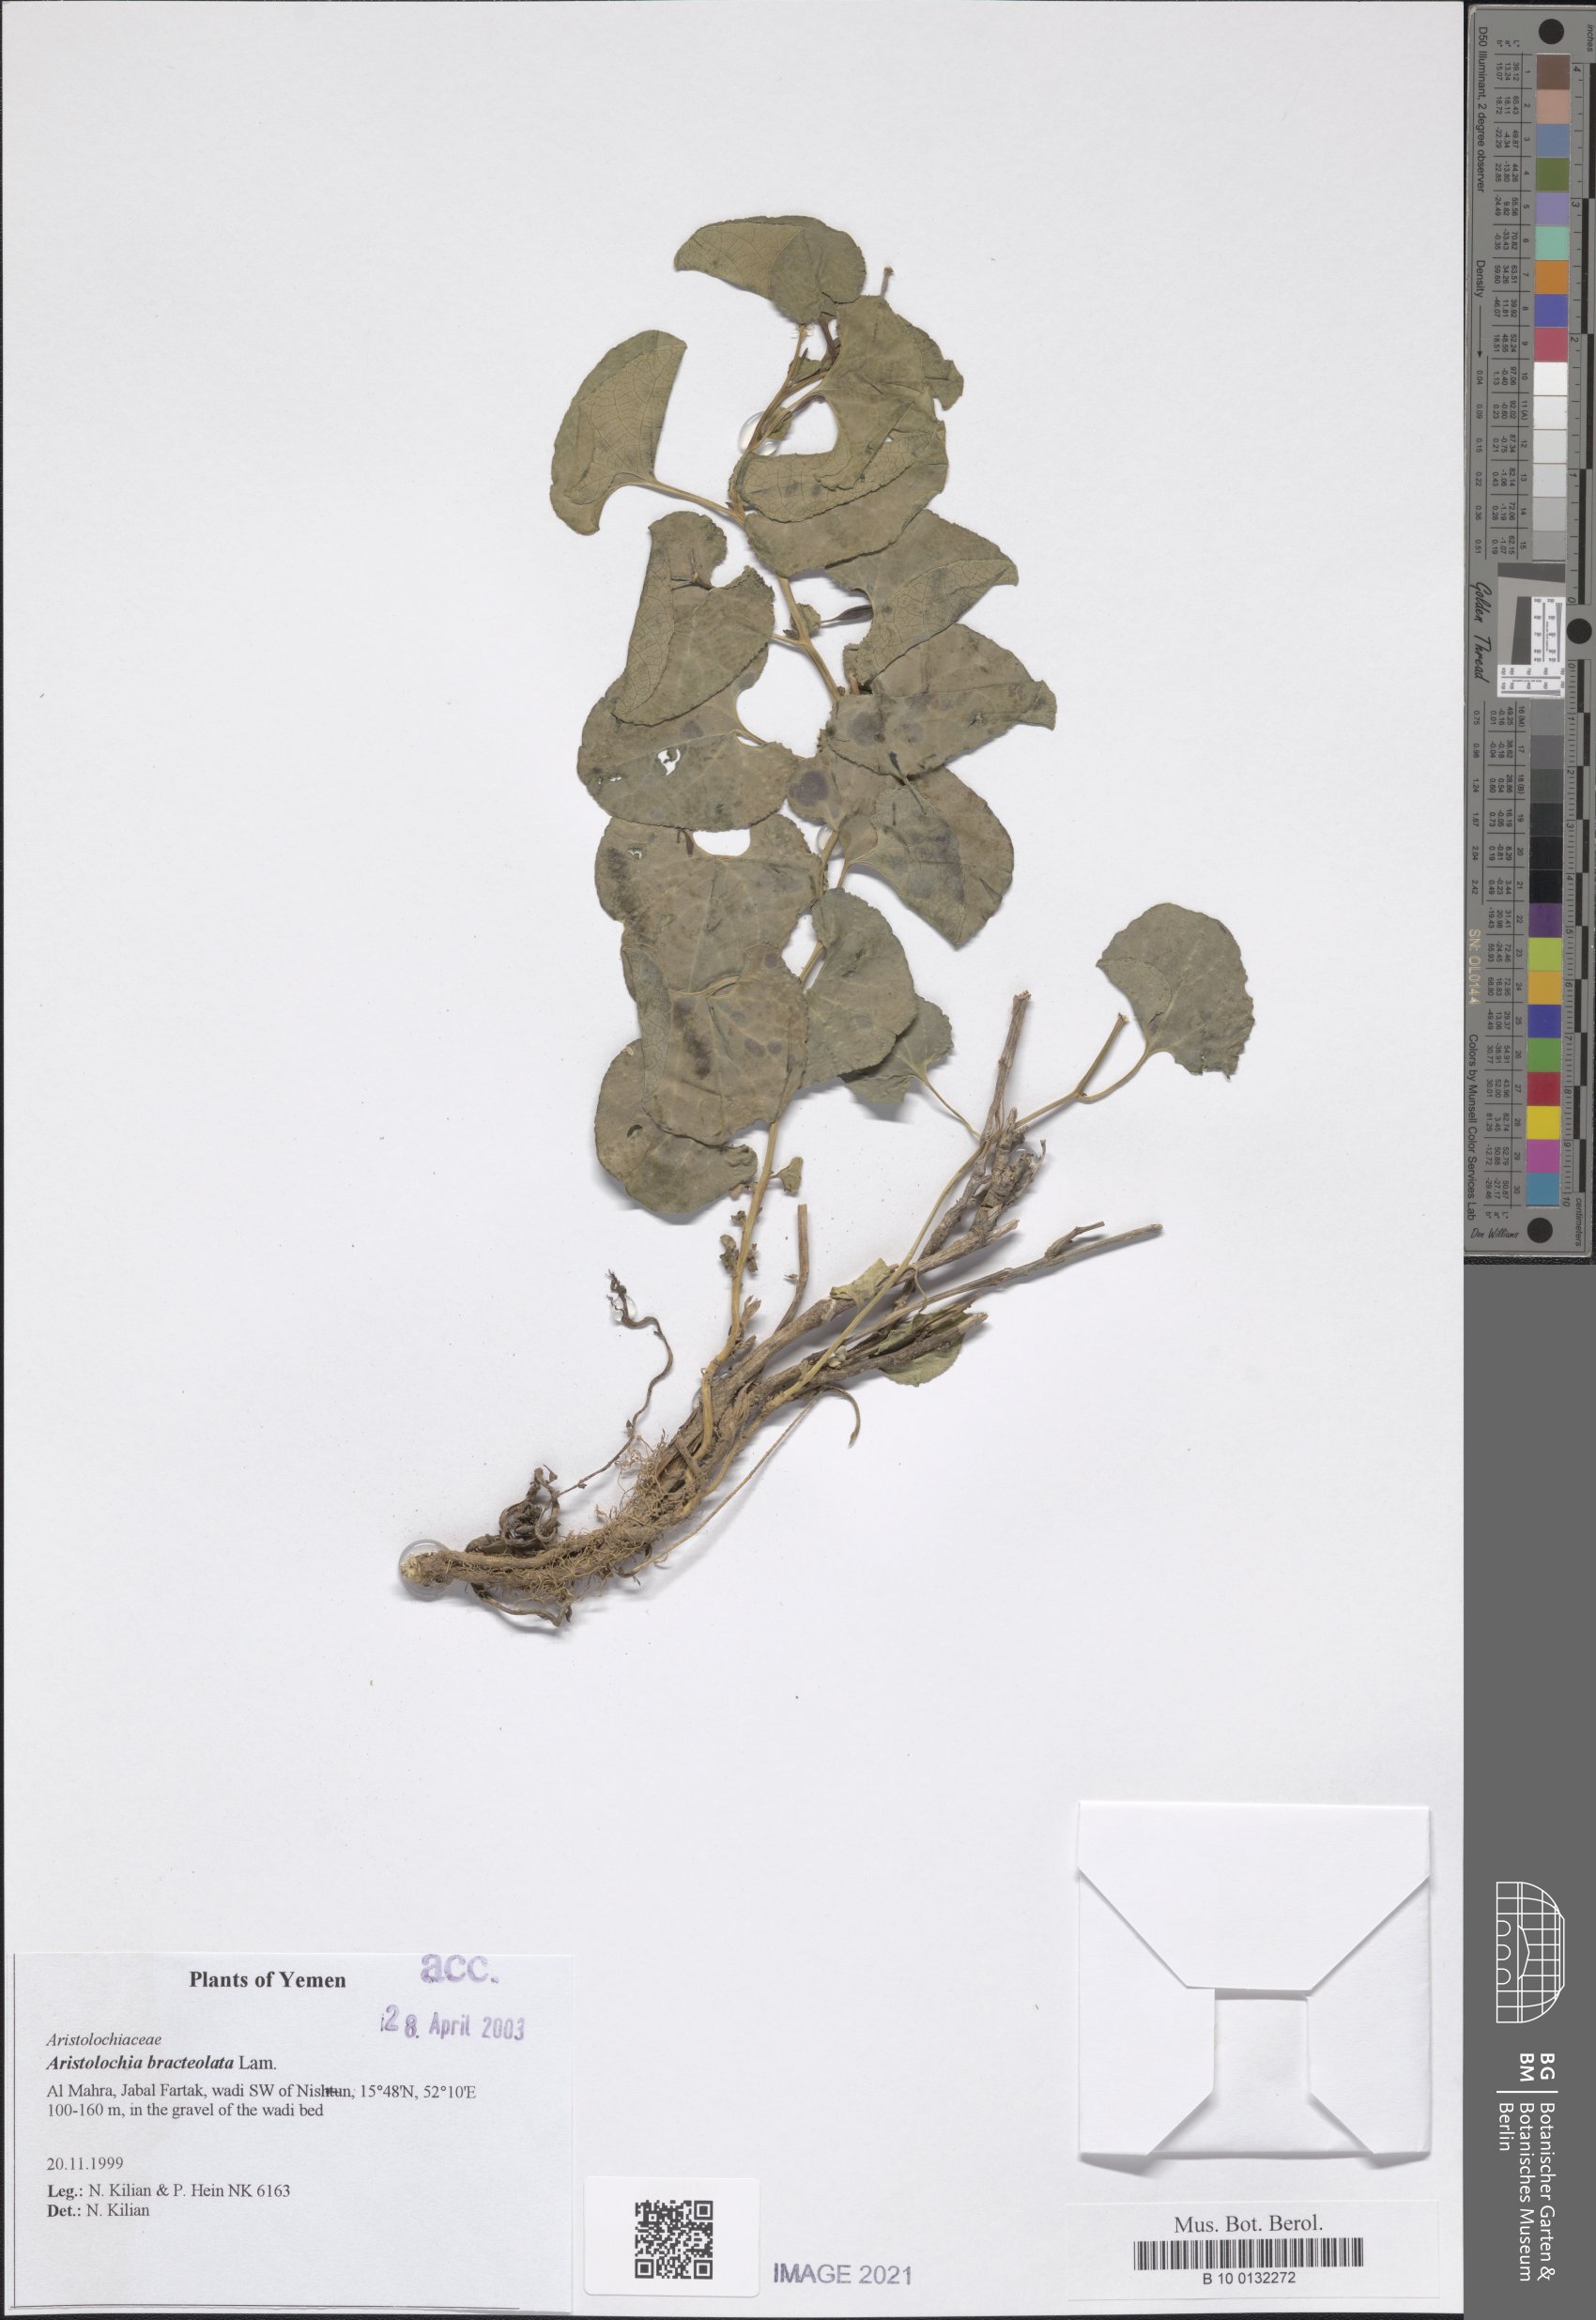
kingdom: Plantae
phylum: Tracheophyta
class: Magnoliopsida
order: Piperales
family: Aristolochiaceae
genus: Aristolochia
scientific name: Aristolochia bracteolata
